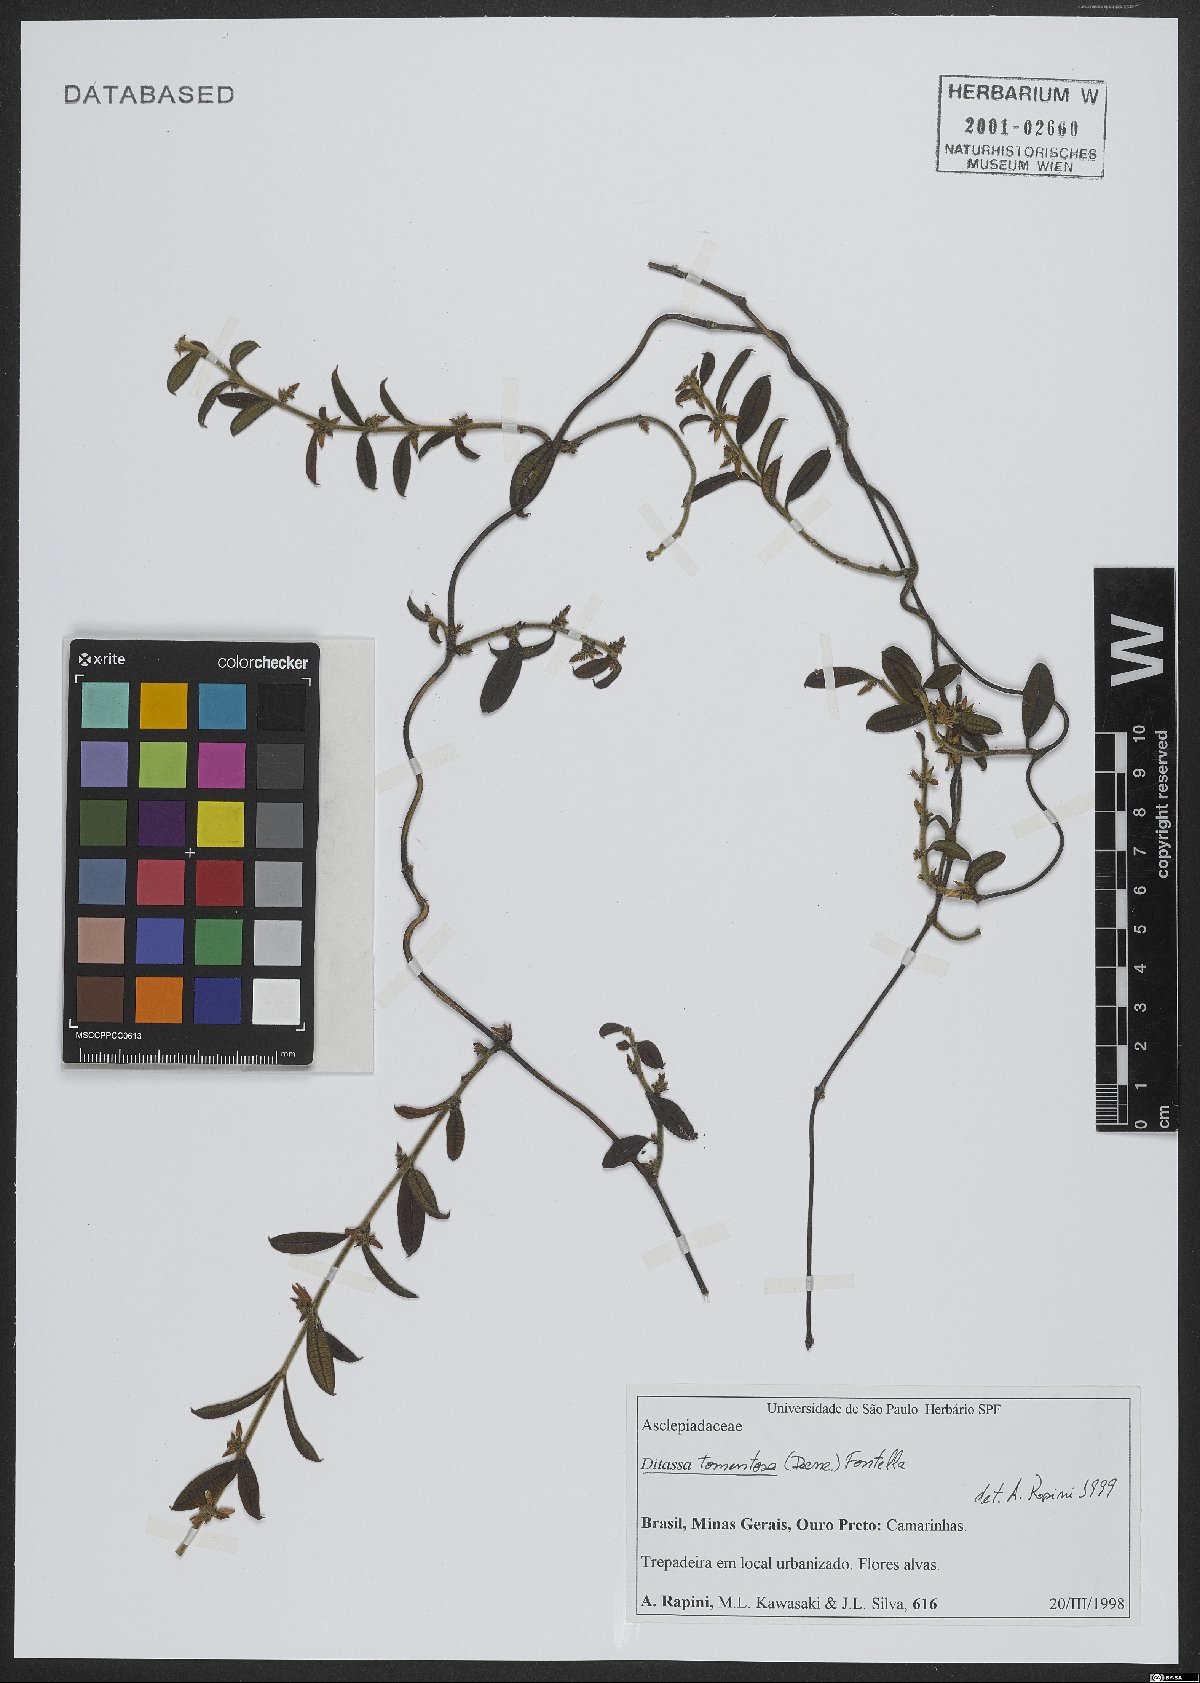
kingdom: Plantae
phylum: Tracheophyta
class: Magnoliopsida
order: Gentianales
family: Apocynaceae
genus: Ditassa
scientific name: Ditassa tomentosa
